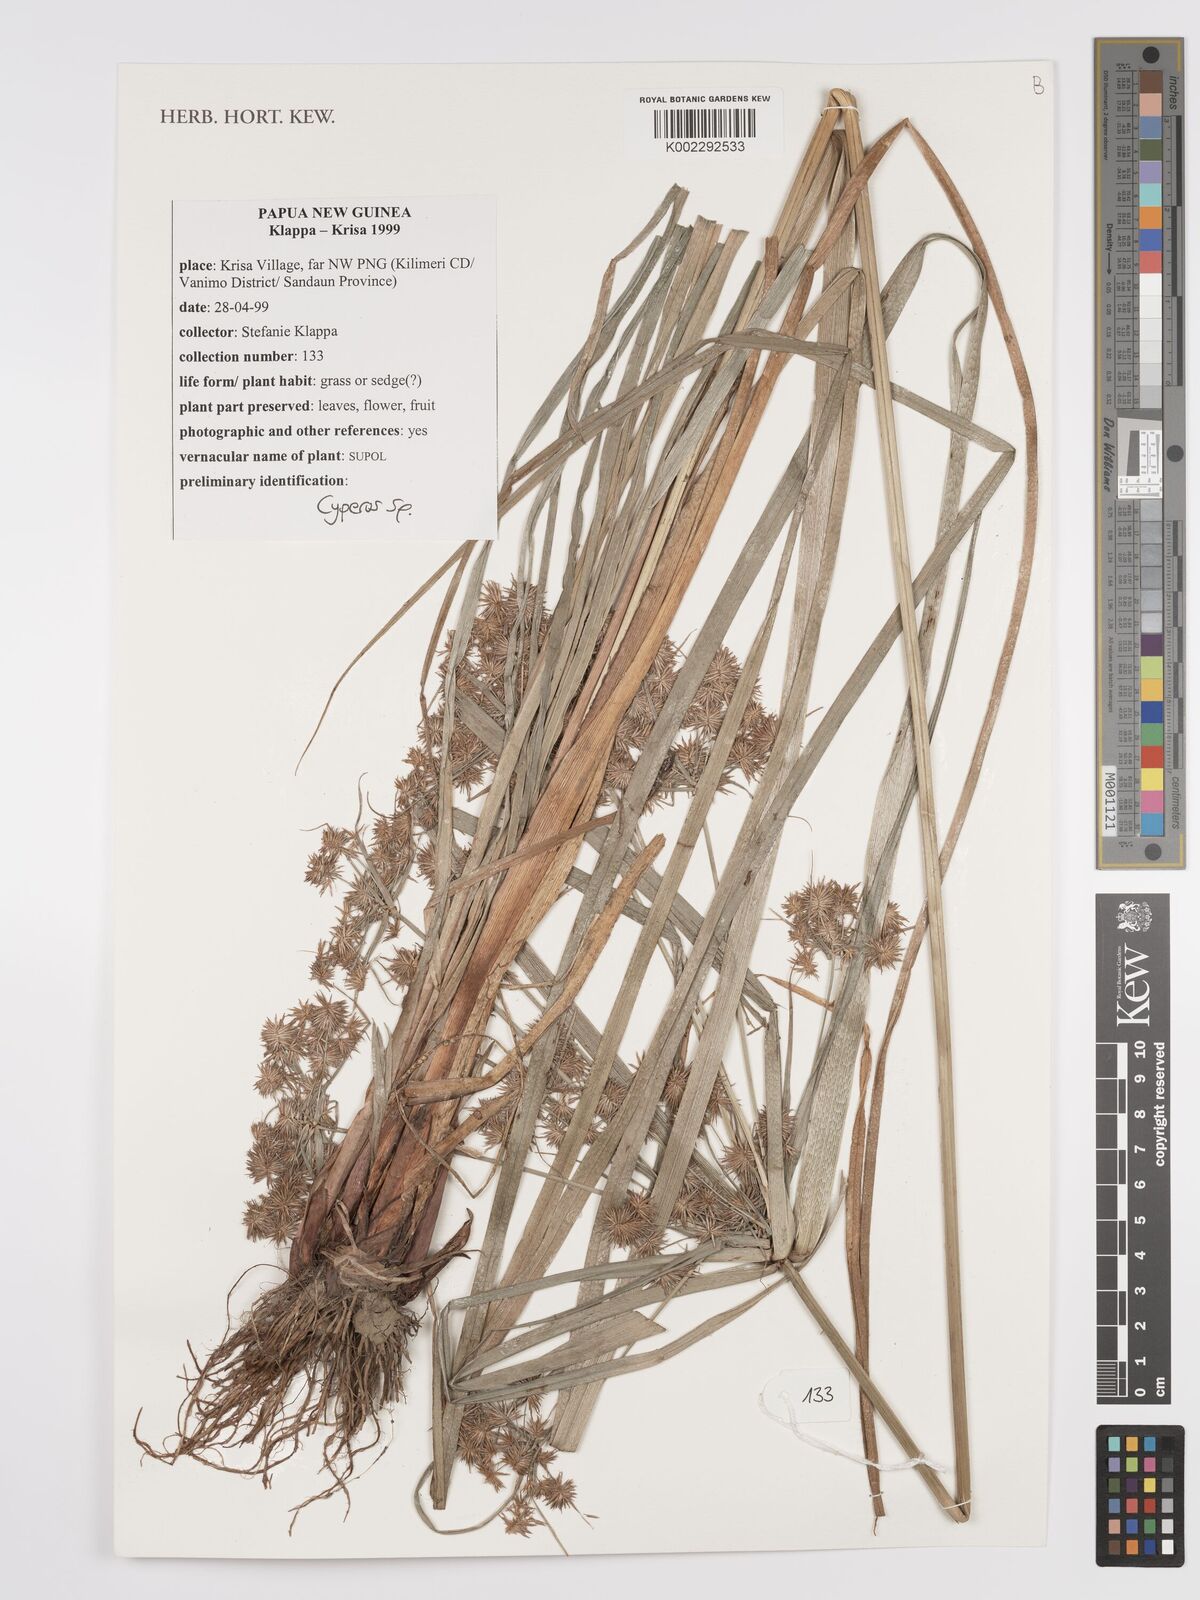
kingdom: Plantae
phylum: Tracheophyta
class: Liliopsida
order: Poales
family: Cyperaceae
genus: Cyperus
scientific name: Cyperus
